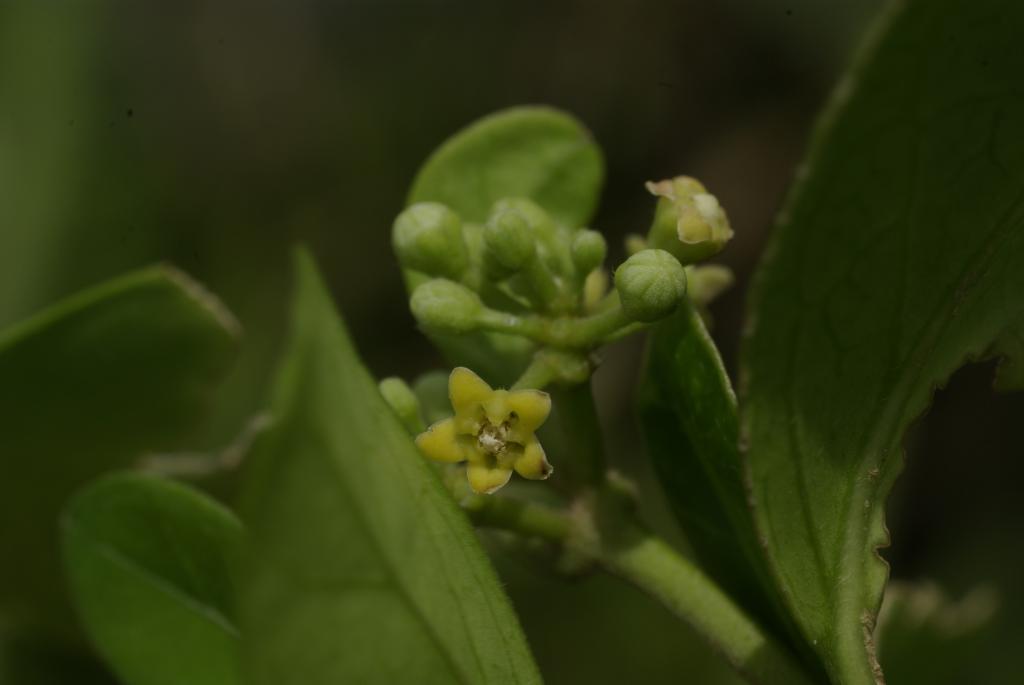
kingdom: Plantae
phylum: Tracheophyta
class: Magnoliopsida
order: Gentianales
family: Apocynaceae
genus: Gymnema
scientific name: Gymnema sylvestre
